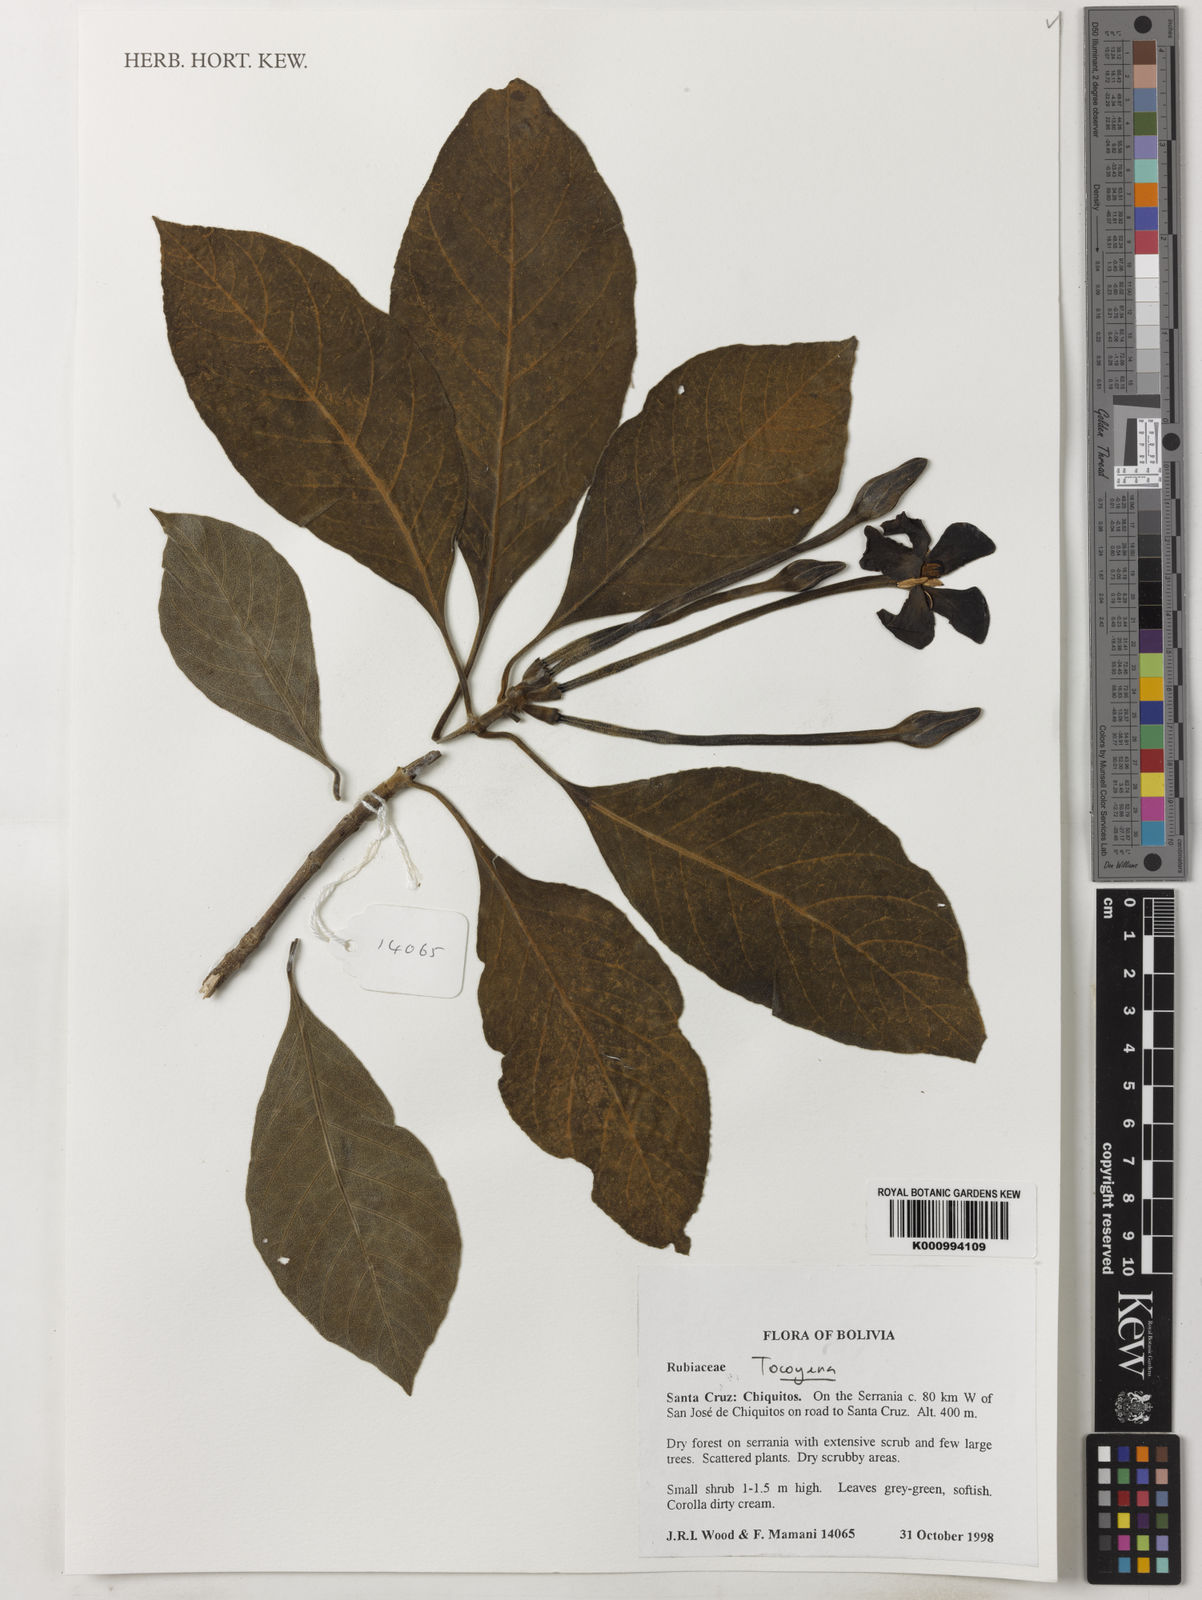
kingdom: Plantae
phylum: Tracheophyta
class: Magnoliopsida
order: Gentianales
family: Rubiaceae
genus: Tocoyena
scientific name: Tocoyena
